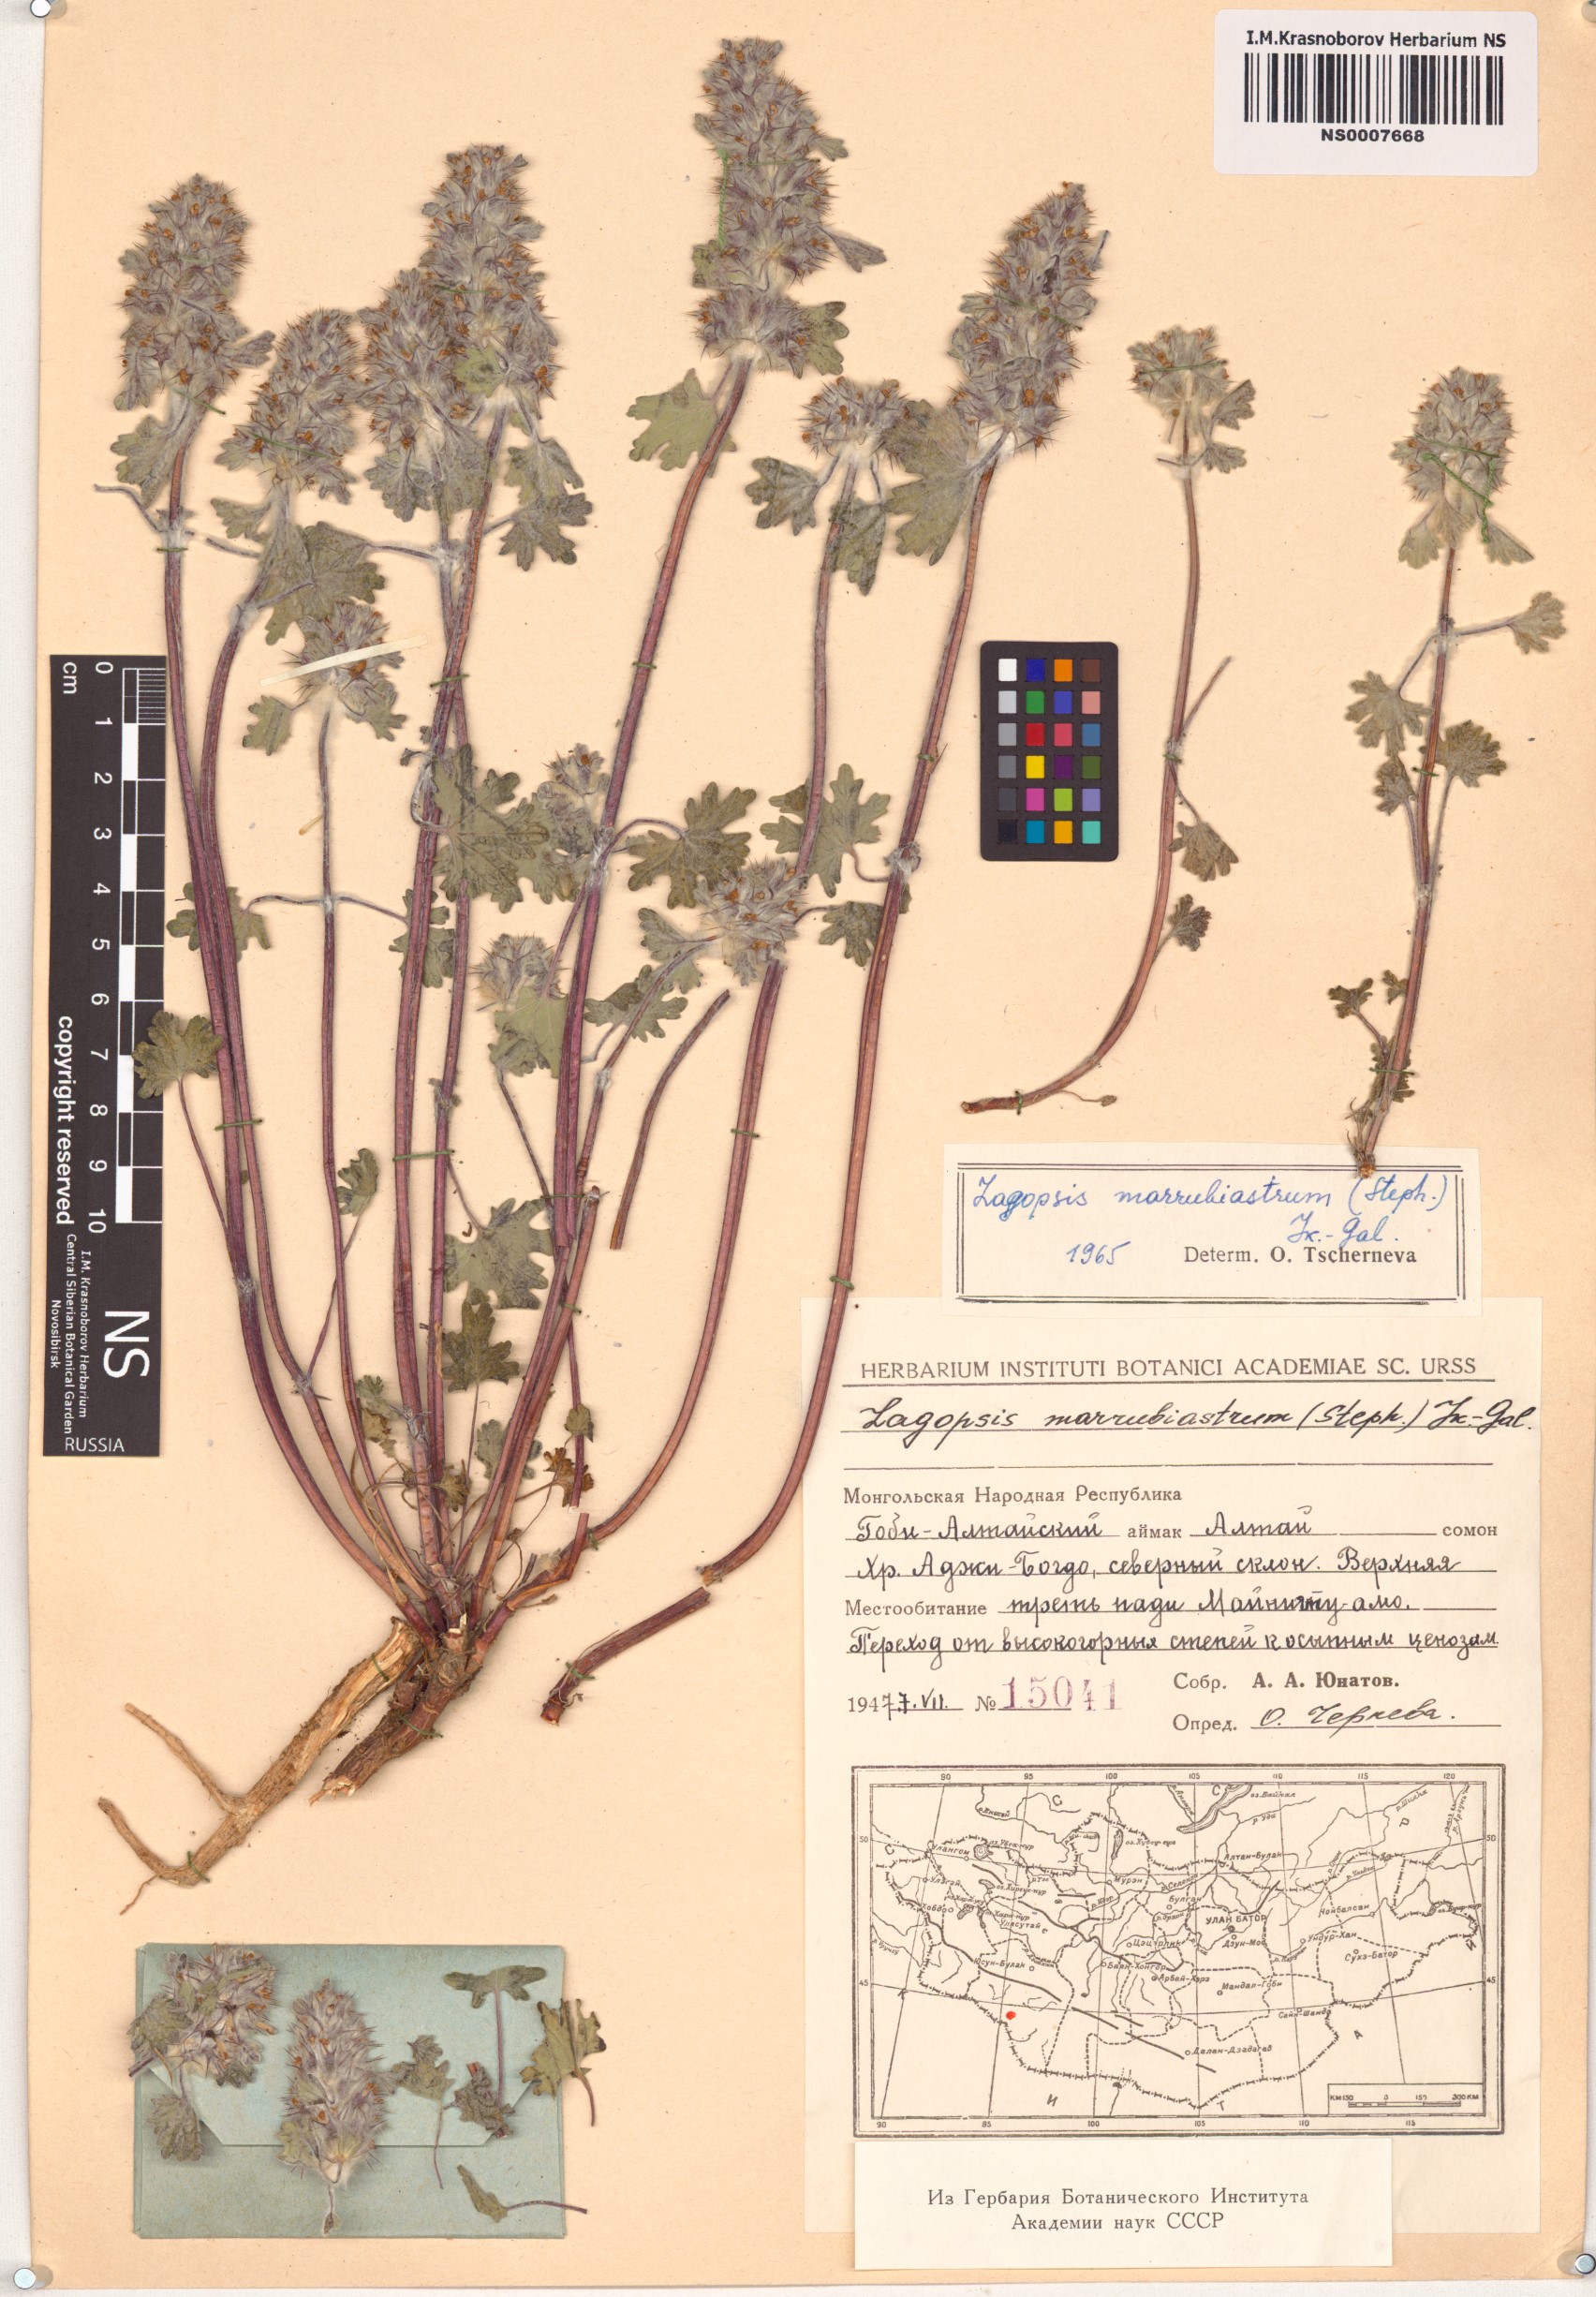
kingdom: Plantae
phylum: Tracheophyta
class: Magnoliopsida
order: Lamiales
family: Lamiaceae
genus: Lagopsis
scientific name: Lagopsis marrubiastrum
